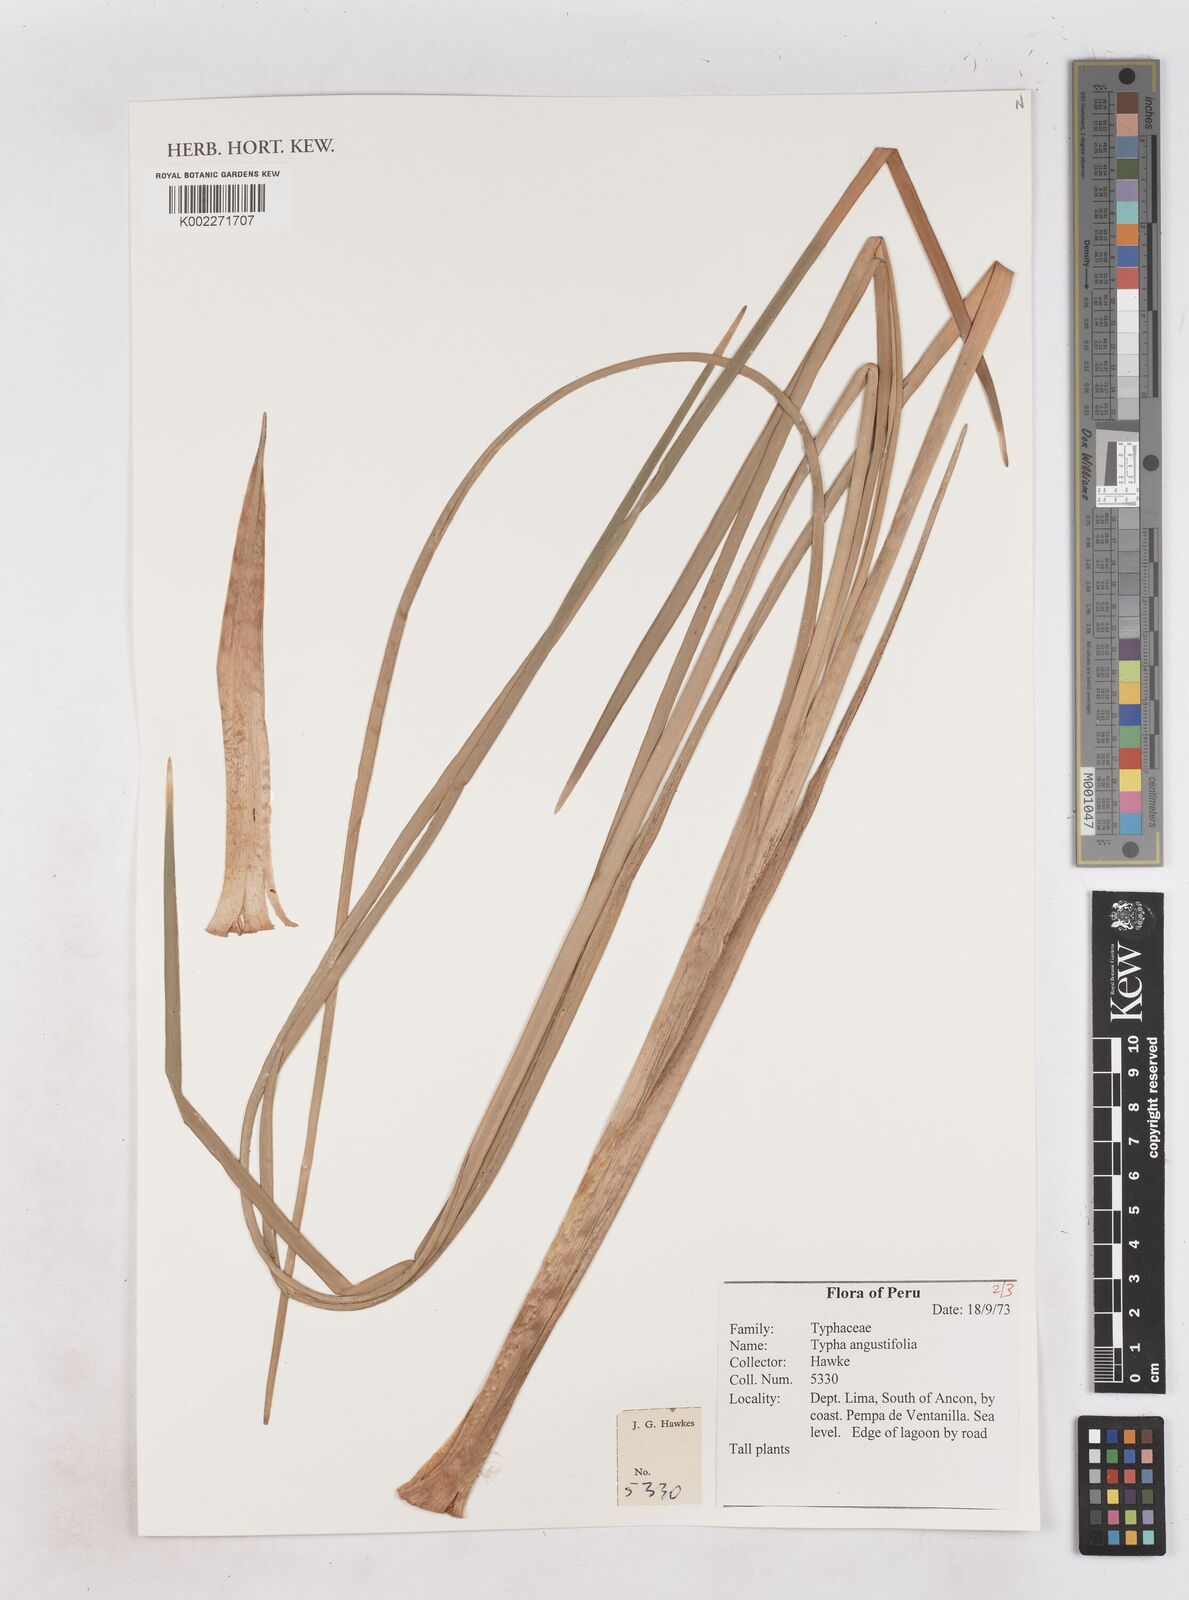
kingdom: Plantae
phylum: Tracheophyta
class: Liliopsida
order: Poales
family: Typhaceae
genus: Typha
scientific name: Typha angustifolia
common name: Lesser bulrush
